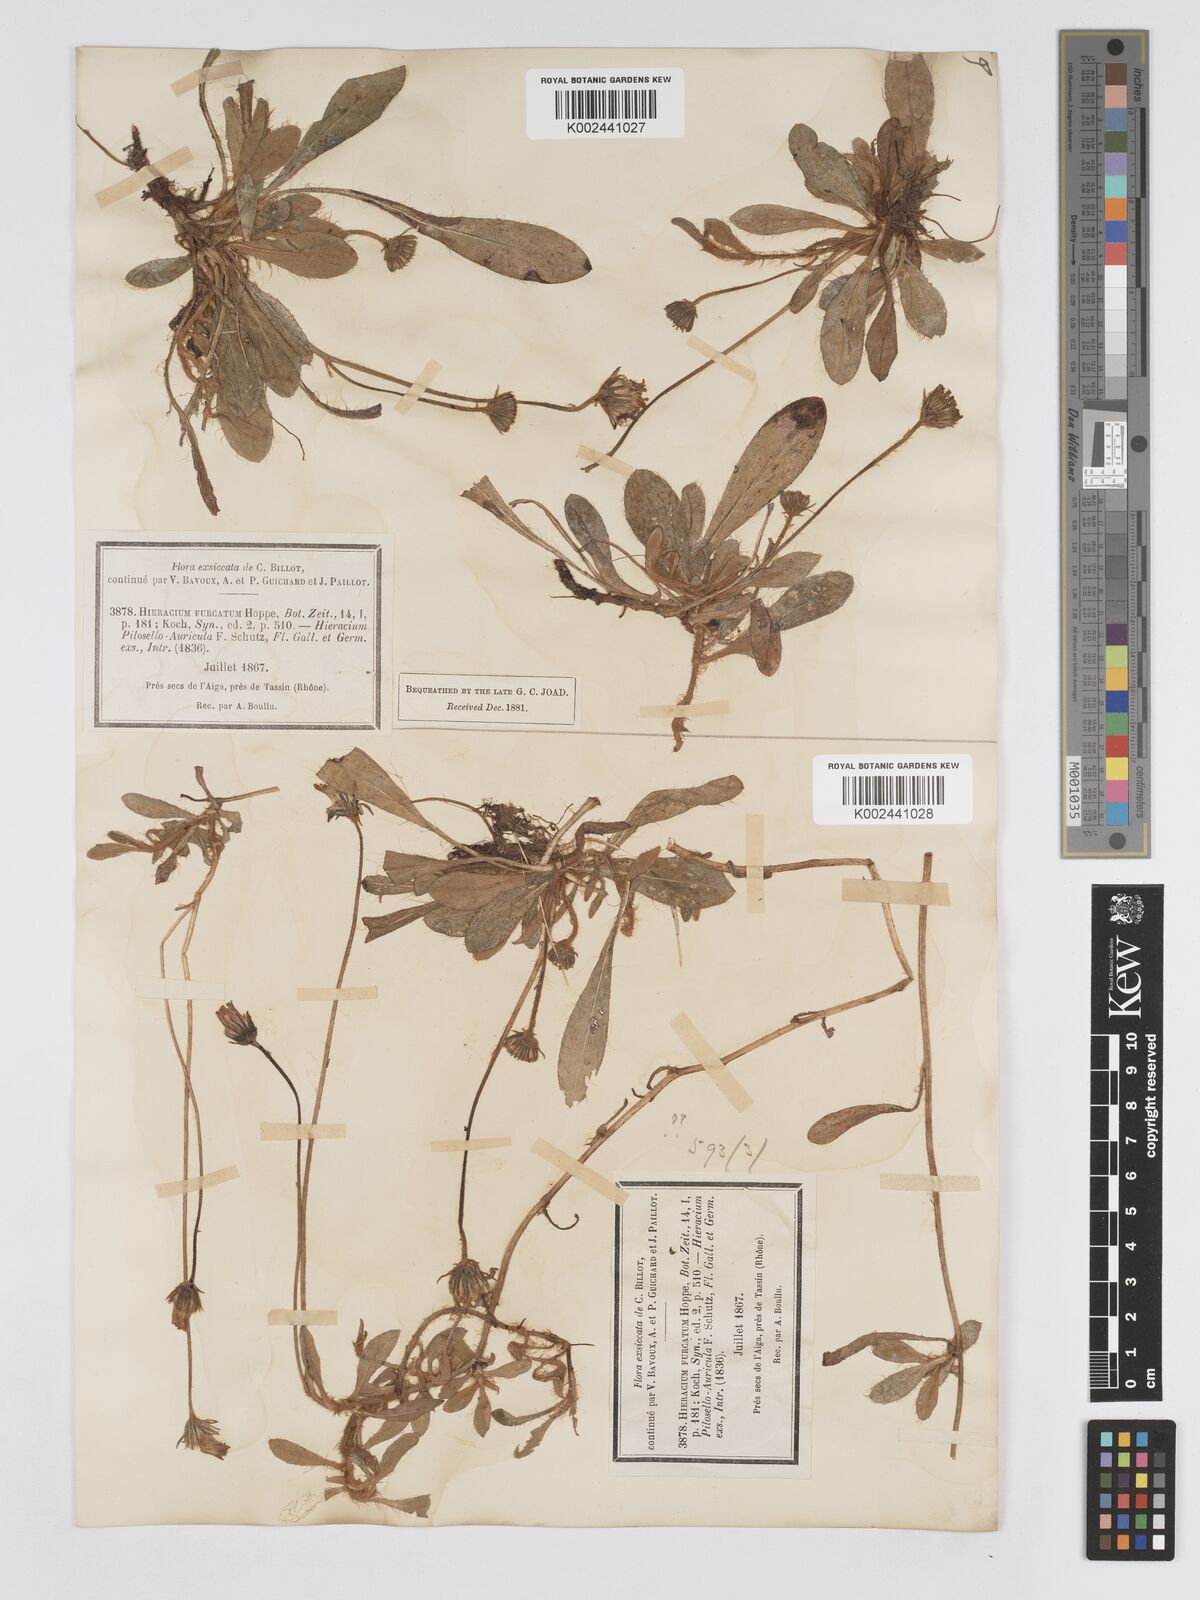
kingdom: Plantae
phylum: Tracheophyta
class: Magnoliopsida
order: Asterales
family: Asteraceae
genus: Pilosella
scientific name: Pilosella sphaerocephala
